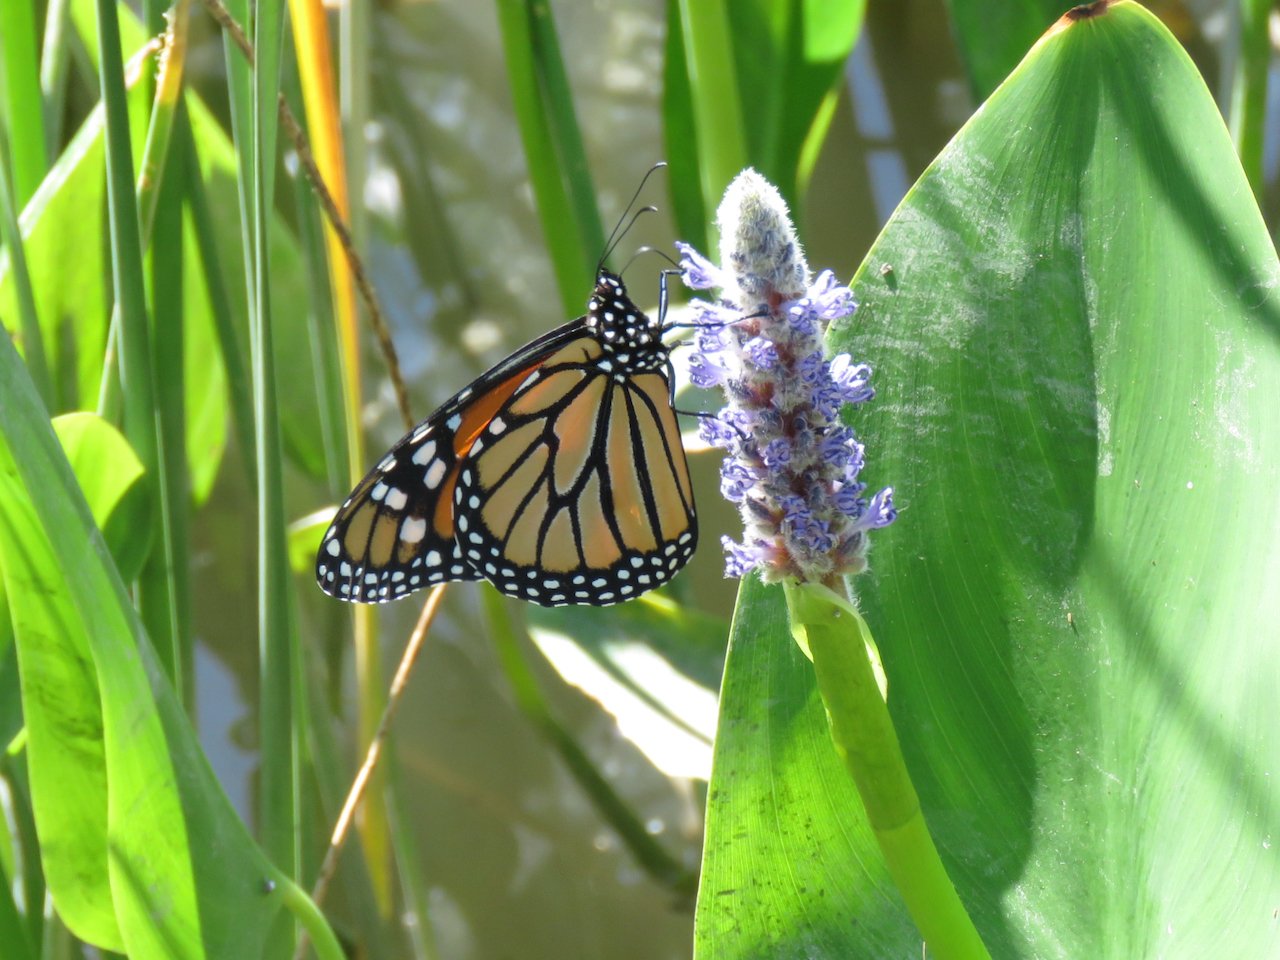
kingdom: Animalia
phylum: Arthropoda
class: Insecta
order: Lepidoptera
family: Nymphalidae
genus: Danaus
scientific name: Danaus plexippus
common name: Monarch
